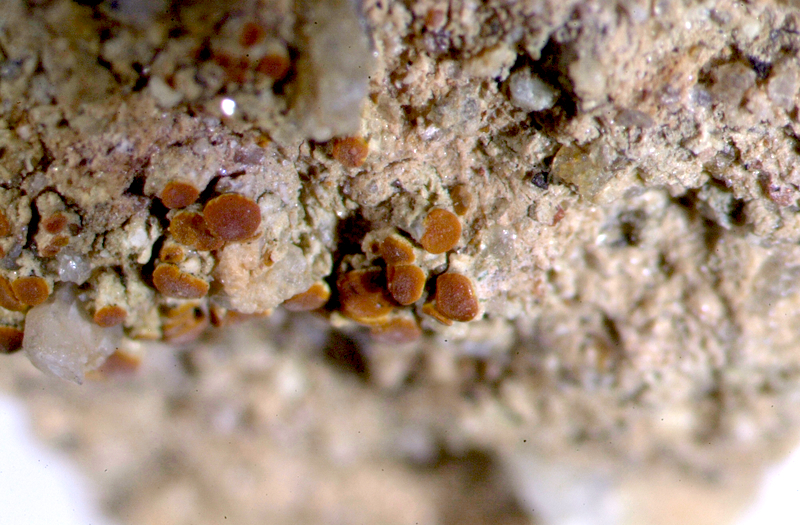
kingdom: Fungi
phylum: Ascomycota
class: Lecanoromycetes
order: Caliciales
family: Caliciaceae
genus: Buellia
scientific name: Buellia
